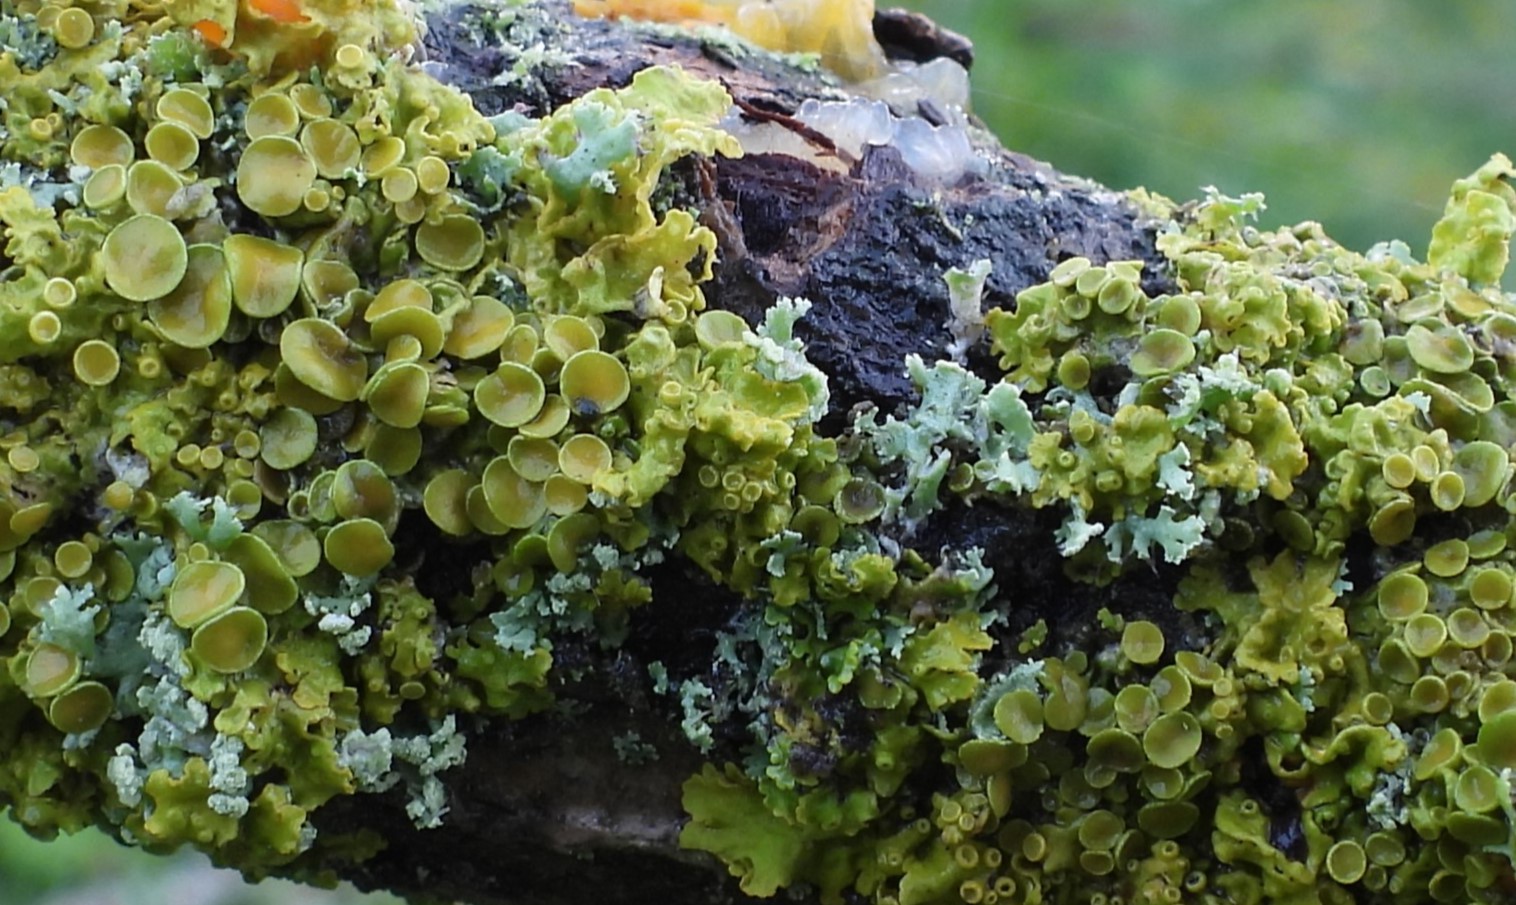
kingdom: Fungi
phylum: Ascomycota
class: Lecanoromycetes
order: Teloschistales
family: Teloschistaceae
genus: Xanthoria
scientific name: Xanthoria parietina
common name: almindelig væggelav
